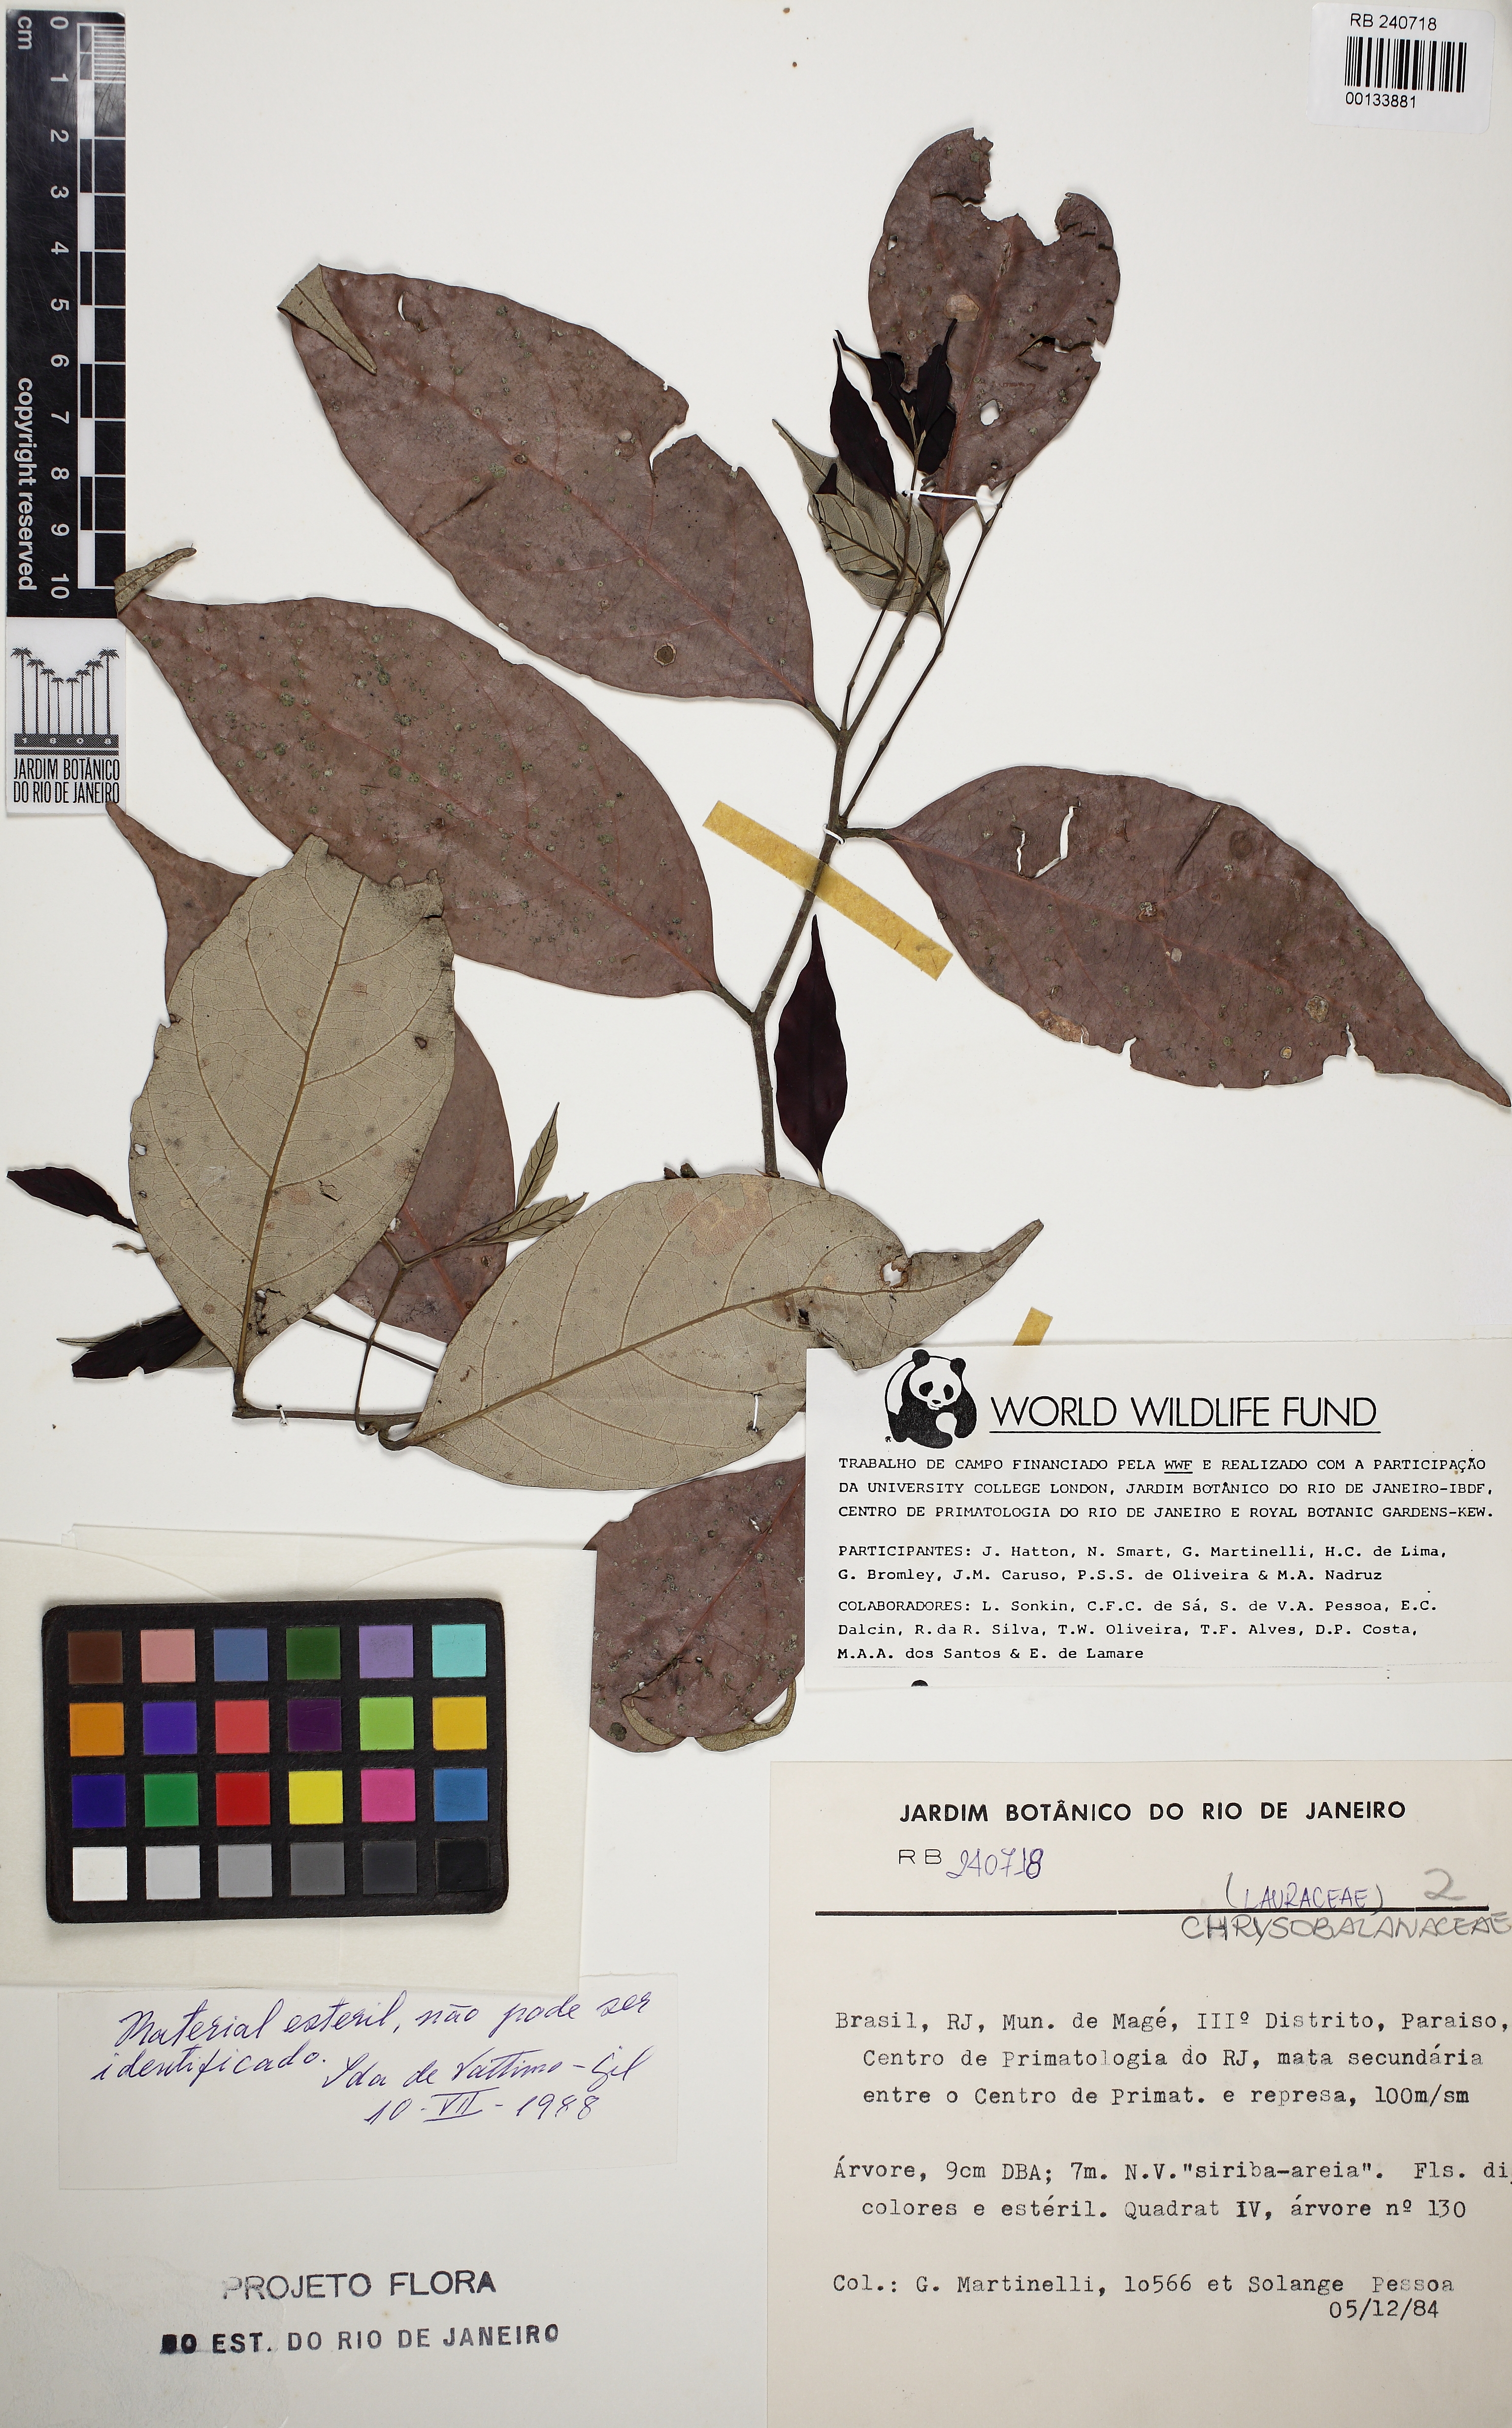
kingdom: Plantae
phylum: Tracheophyta
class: Magnoliopsida
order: Malpighiales
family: Chrysobalanaceae
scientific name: Chrysobalanaceae
